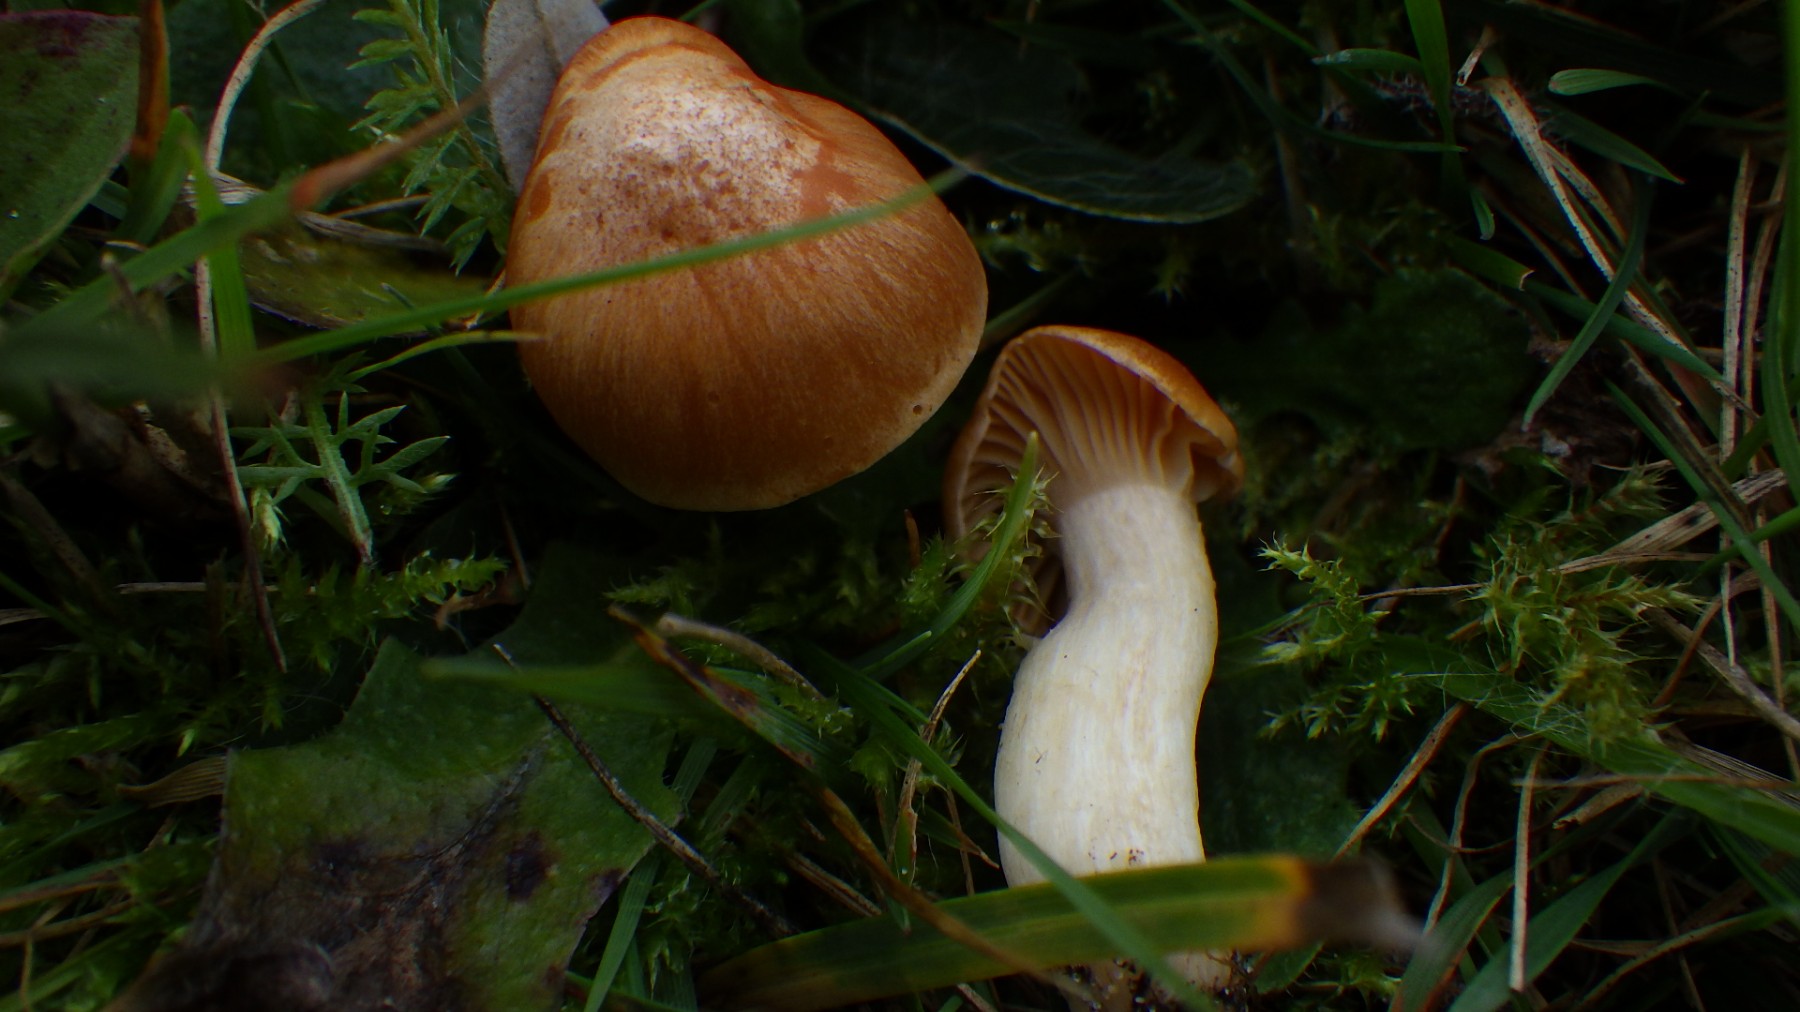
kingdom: Fungi
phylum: Basidiomycota
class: Agaricomycetes
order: Agaricales
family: Hygrophoraceae
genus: Cuphophyllus
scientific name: Cuphophyllus pratensis
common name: eng-vokshat
